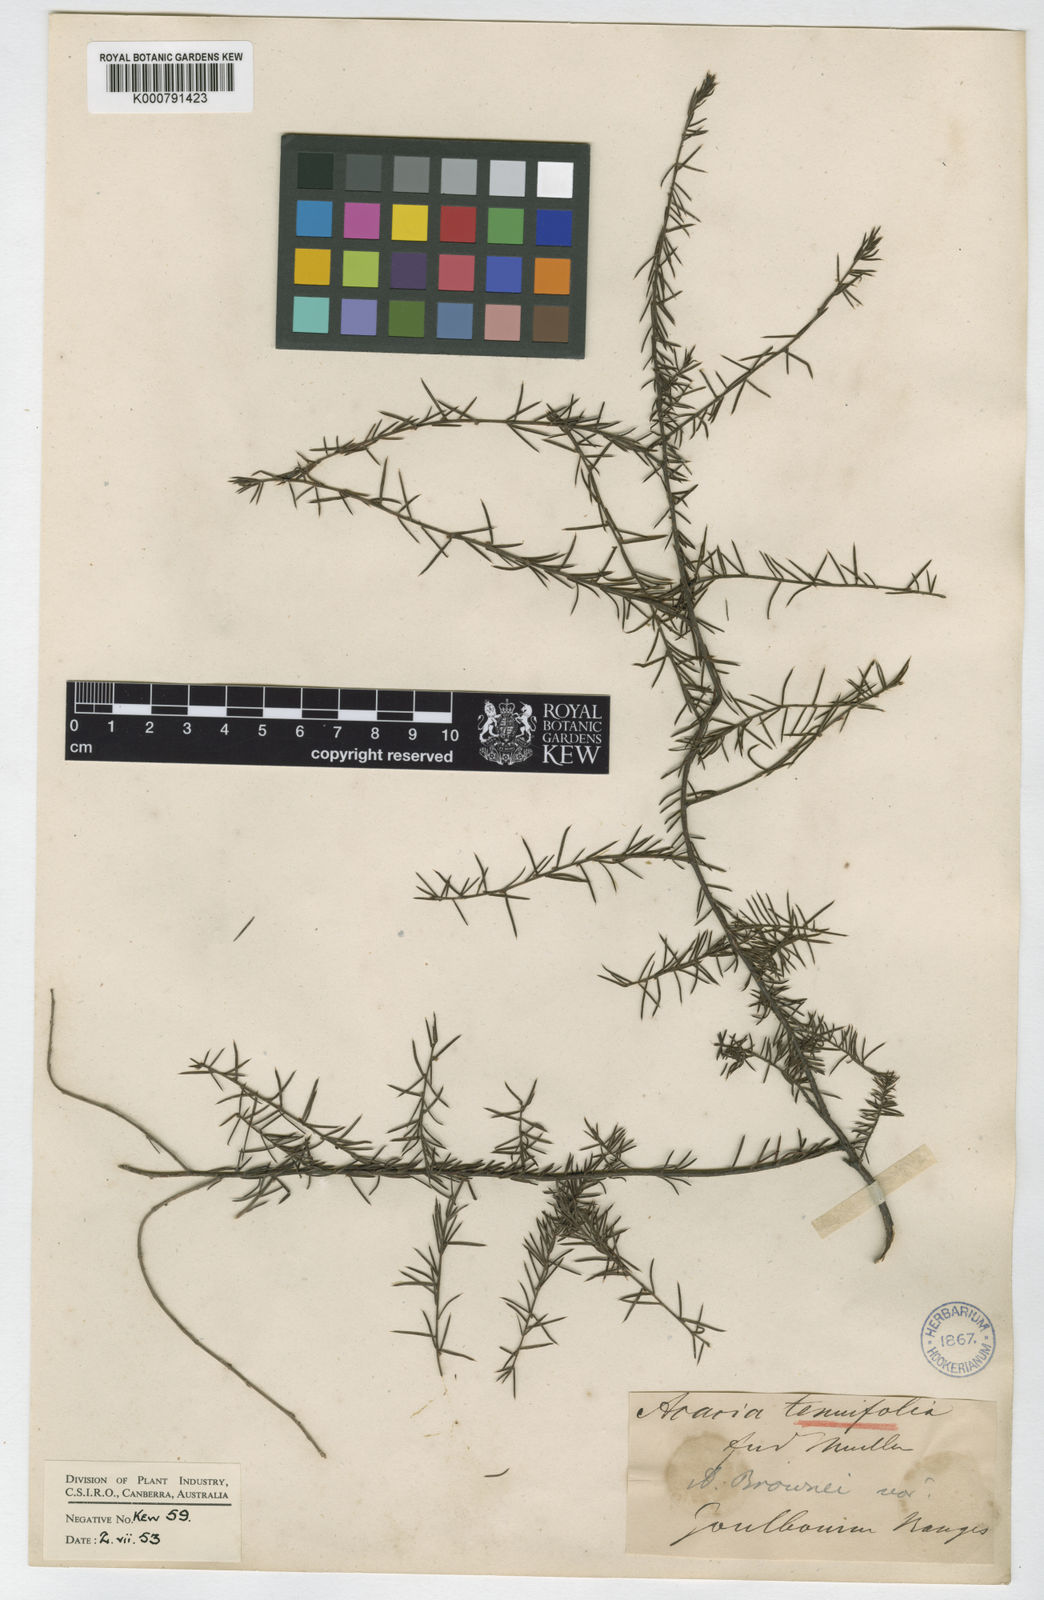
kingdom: Plantae
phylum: Tracheophyta
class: Magnoliopsida
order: Fabales
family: Fabaceae
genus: Acacia
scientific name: Acacia aculeatissima
